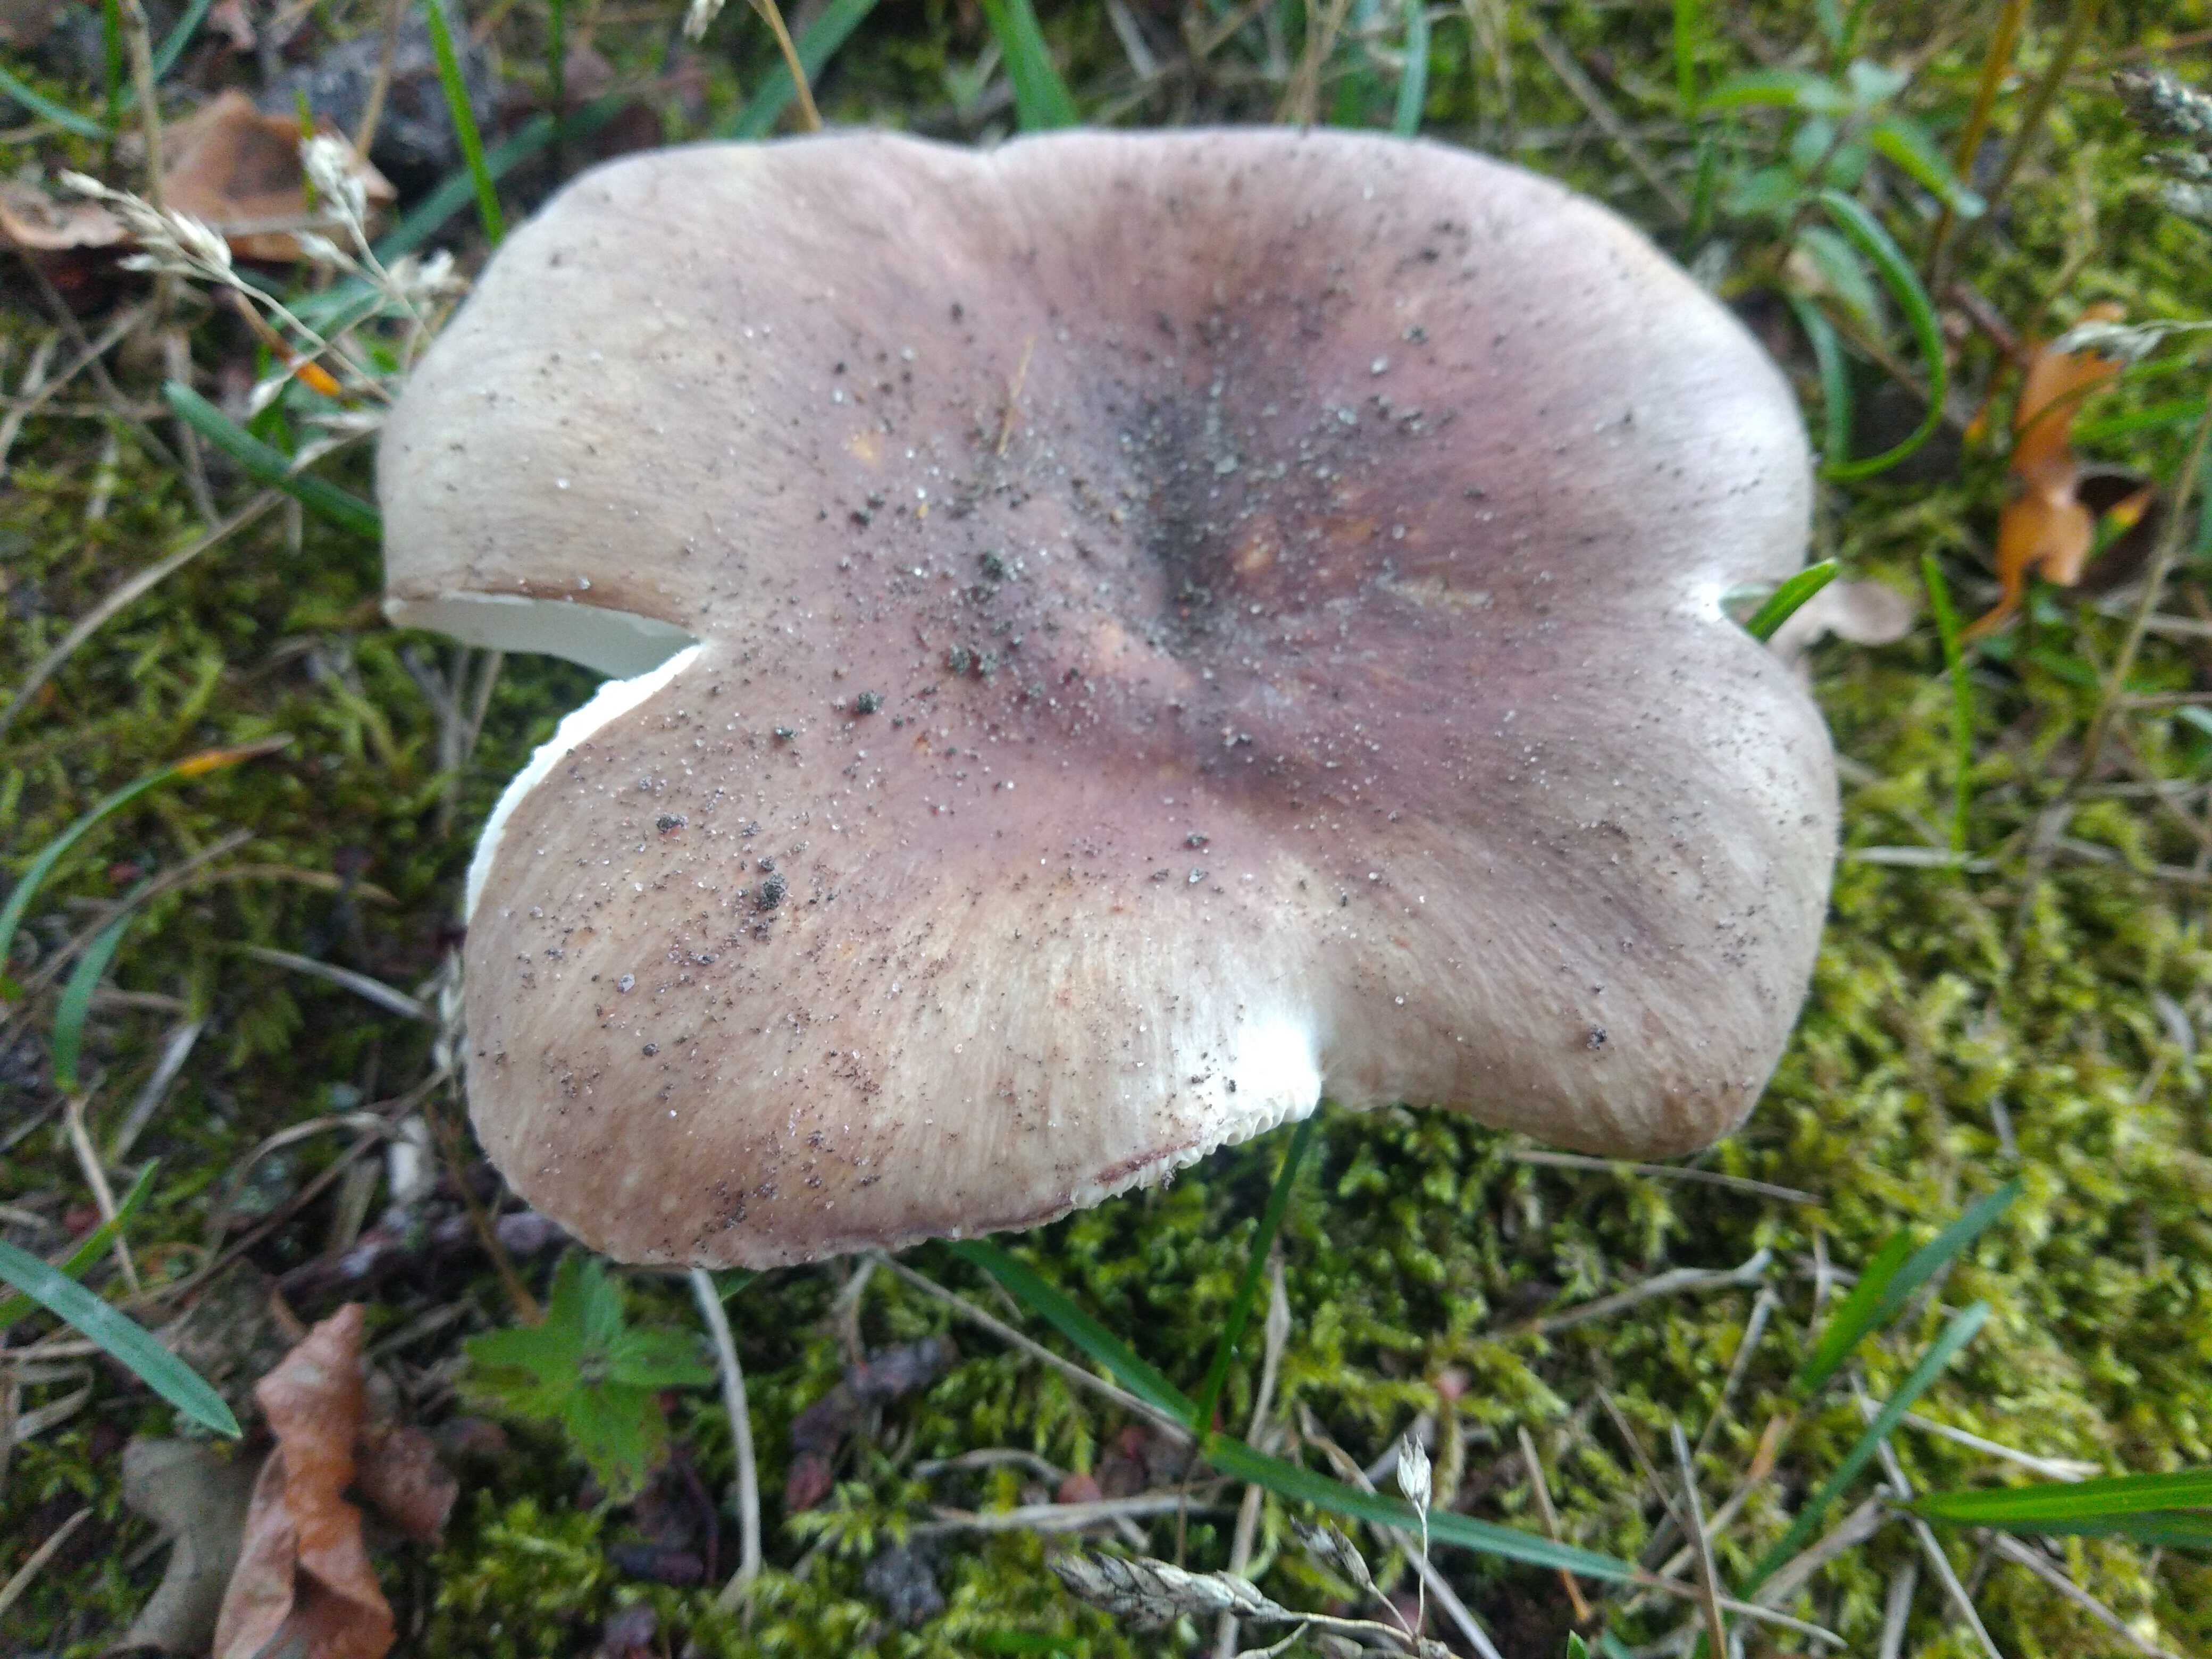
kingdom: Fungi
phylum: Basidiomycota
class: Agaricomycetes
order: Russulales
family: Russulaceae
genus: Russula
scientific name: Russula vesca
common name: spiselig skørhat
